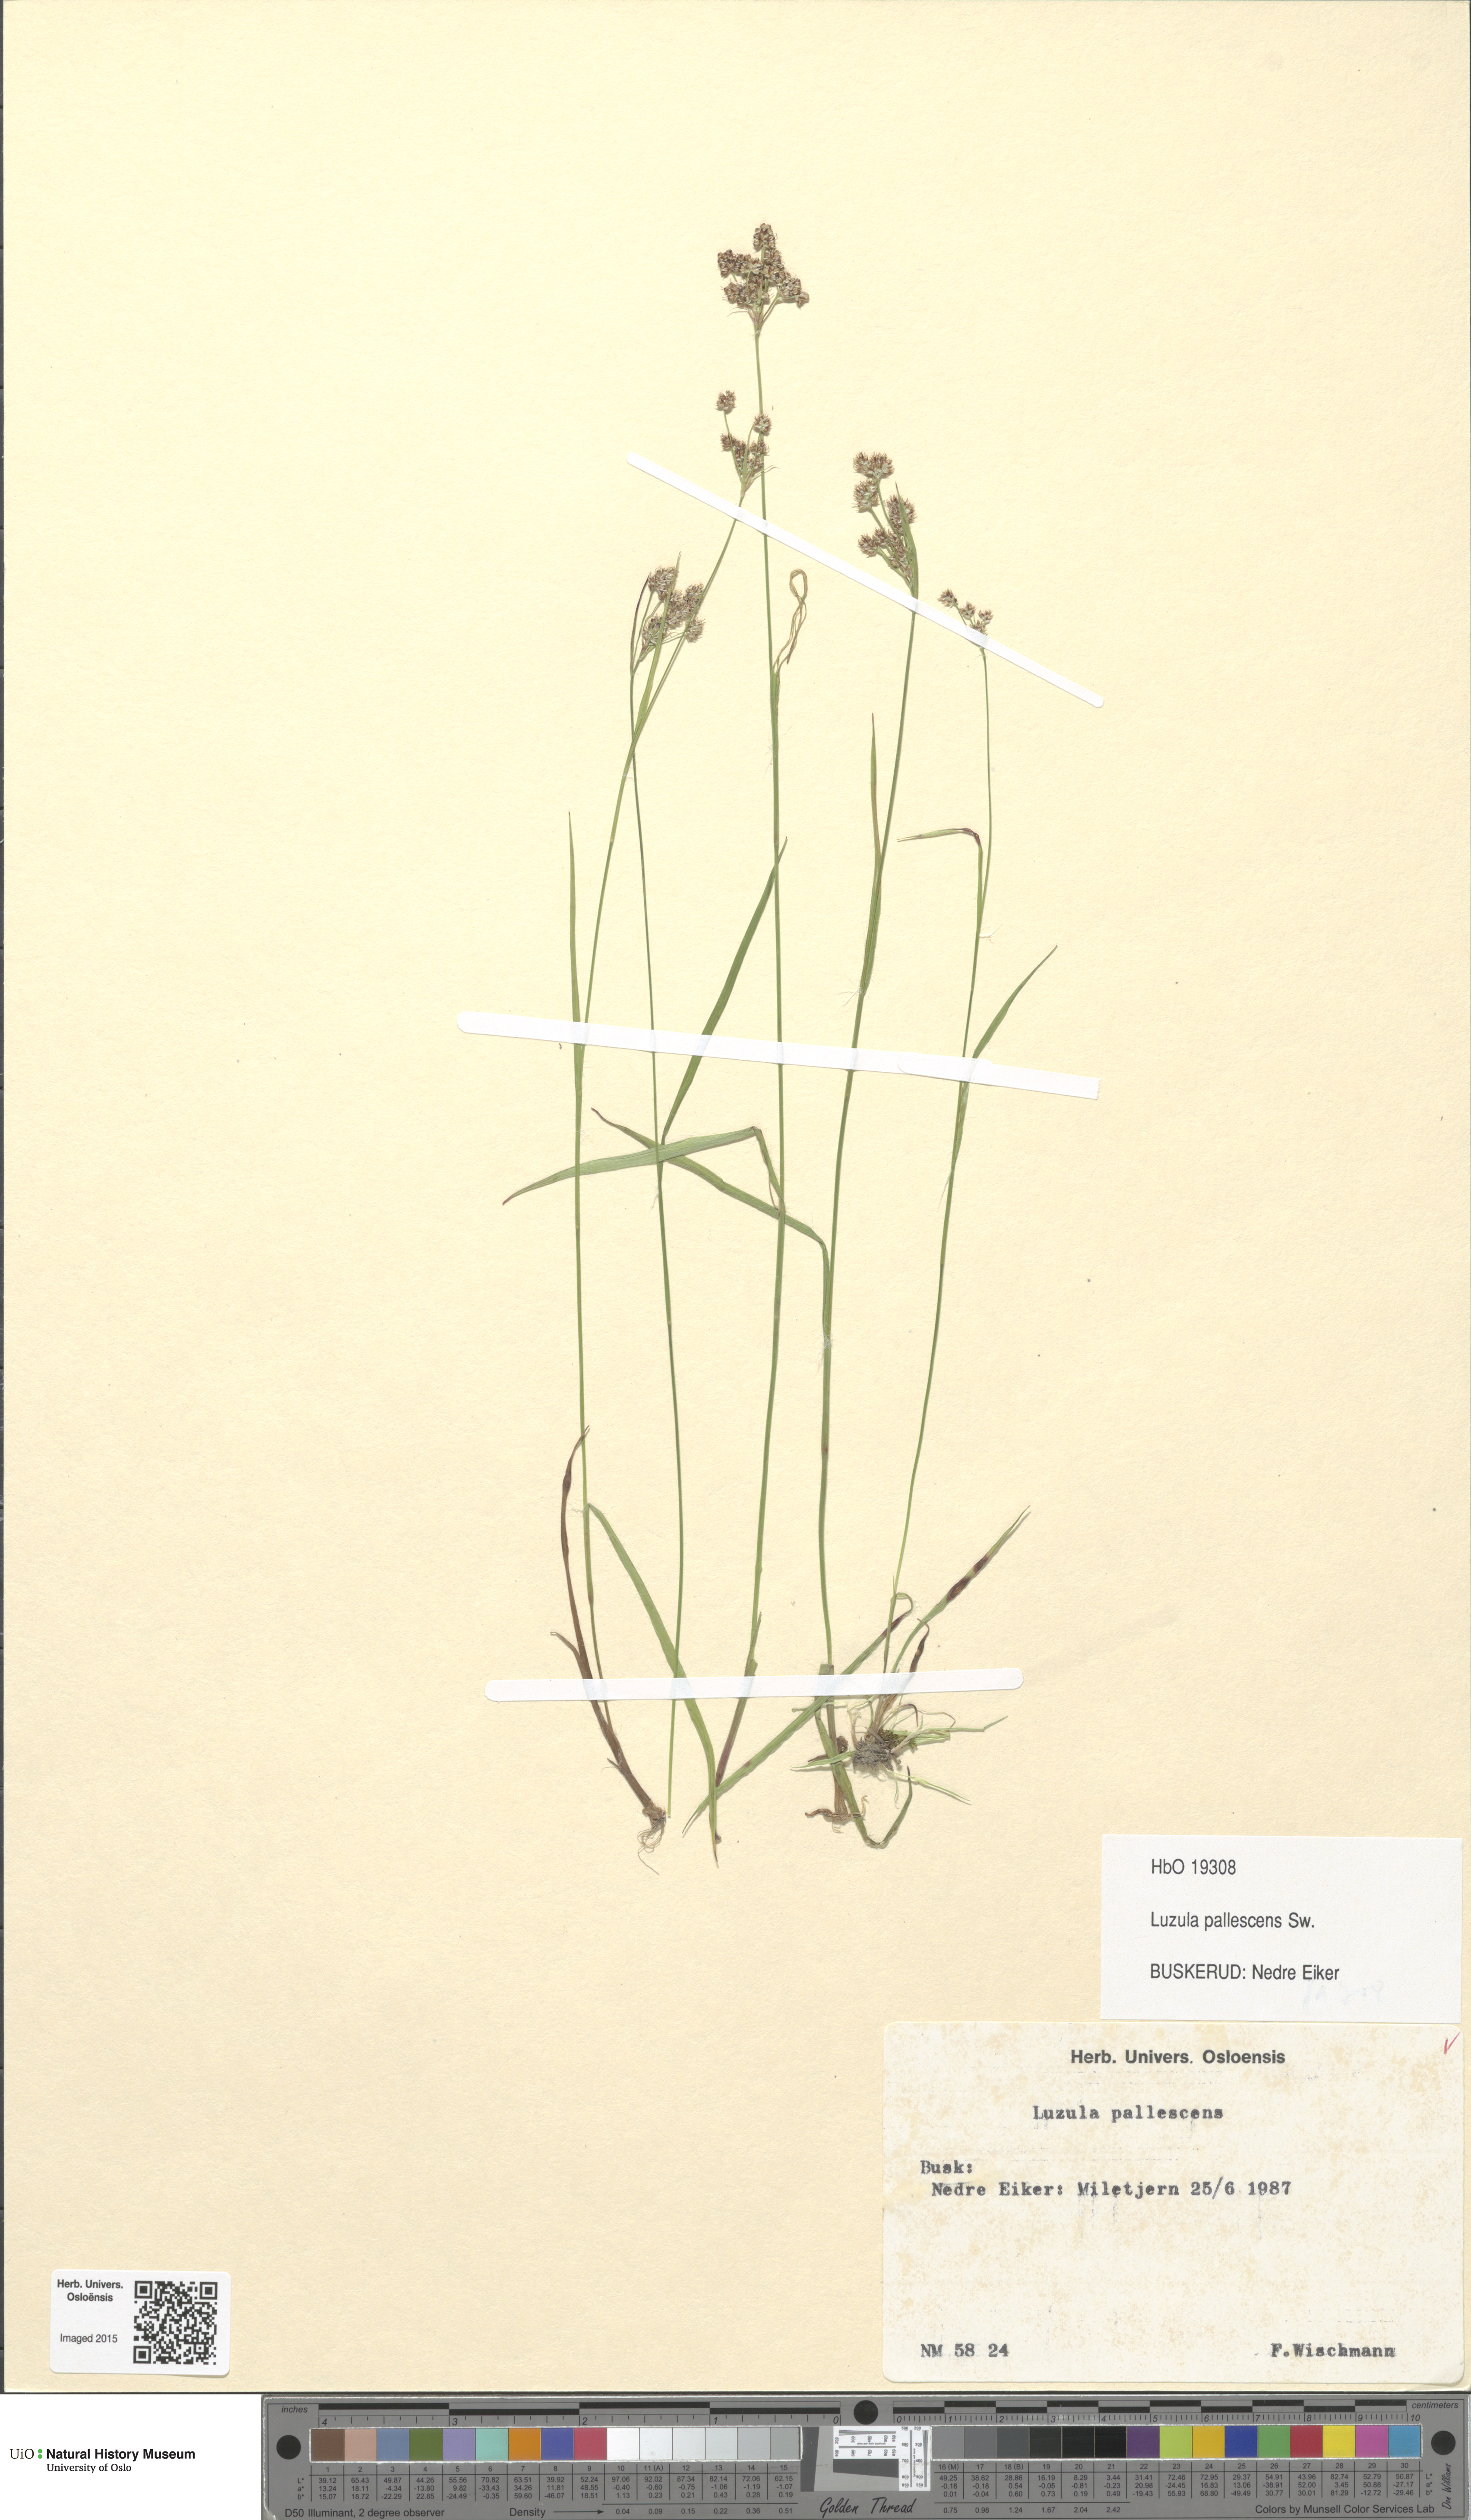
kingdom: Plantae
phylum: Tracheophyta
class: Liliopsida
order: Poales
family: Juncaceae
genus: Luzula
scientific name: Luzula pallescens
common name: Fen wood-rush
